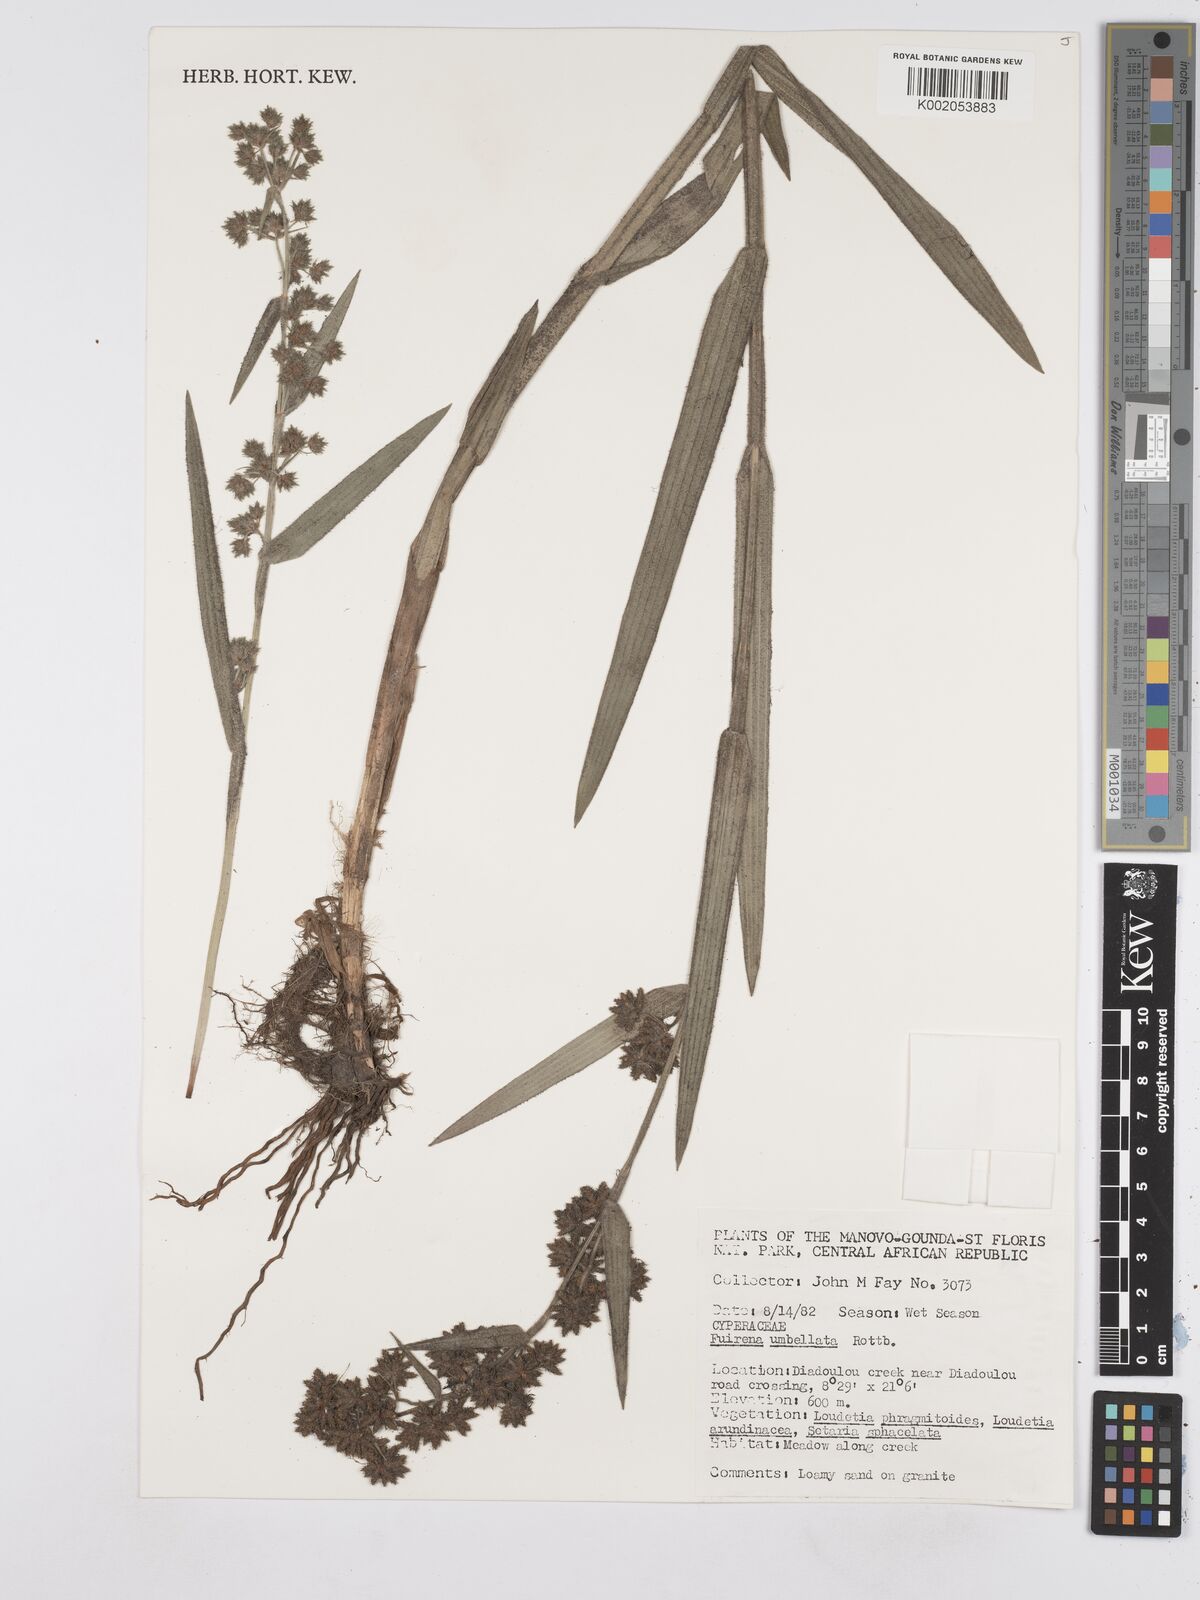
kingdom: Plantae
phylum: Tracheophyta
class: Liliopsida
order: Poales
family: Cyperaceae
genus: Fuirena
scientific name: Fuirena umbellata
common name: Yefen
